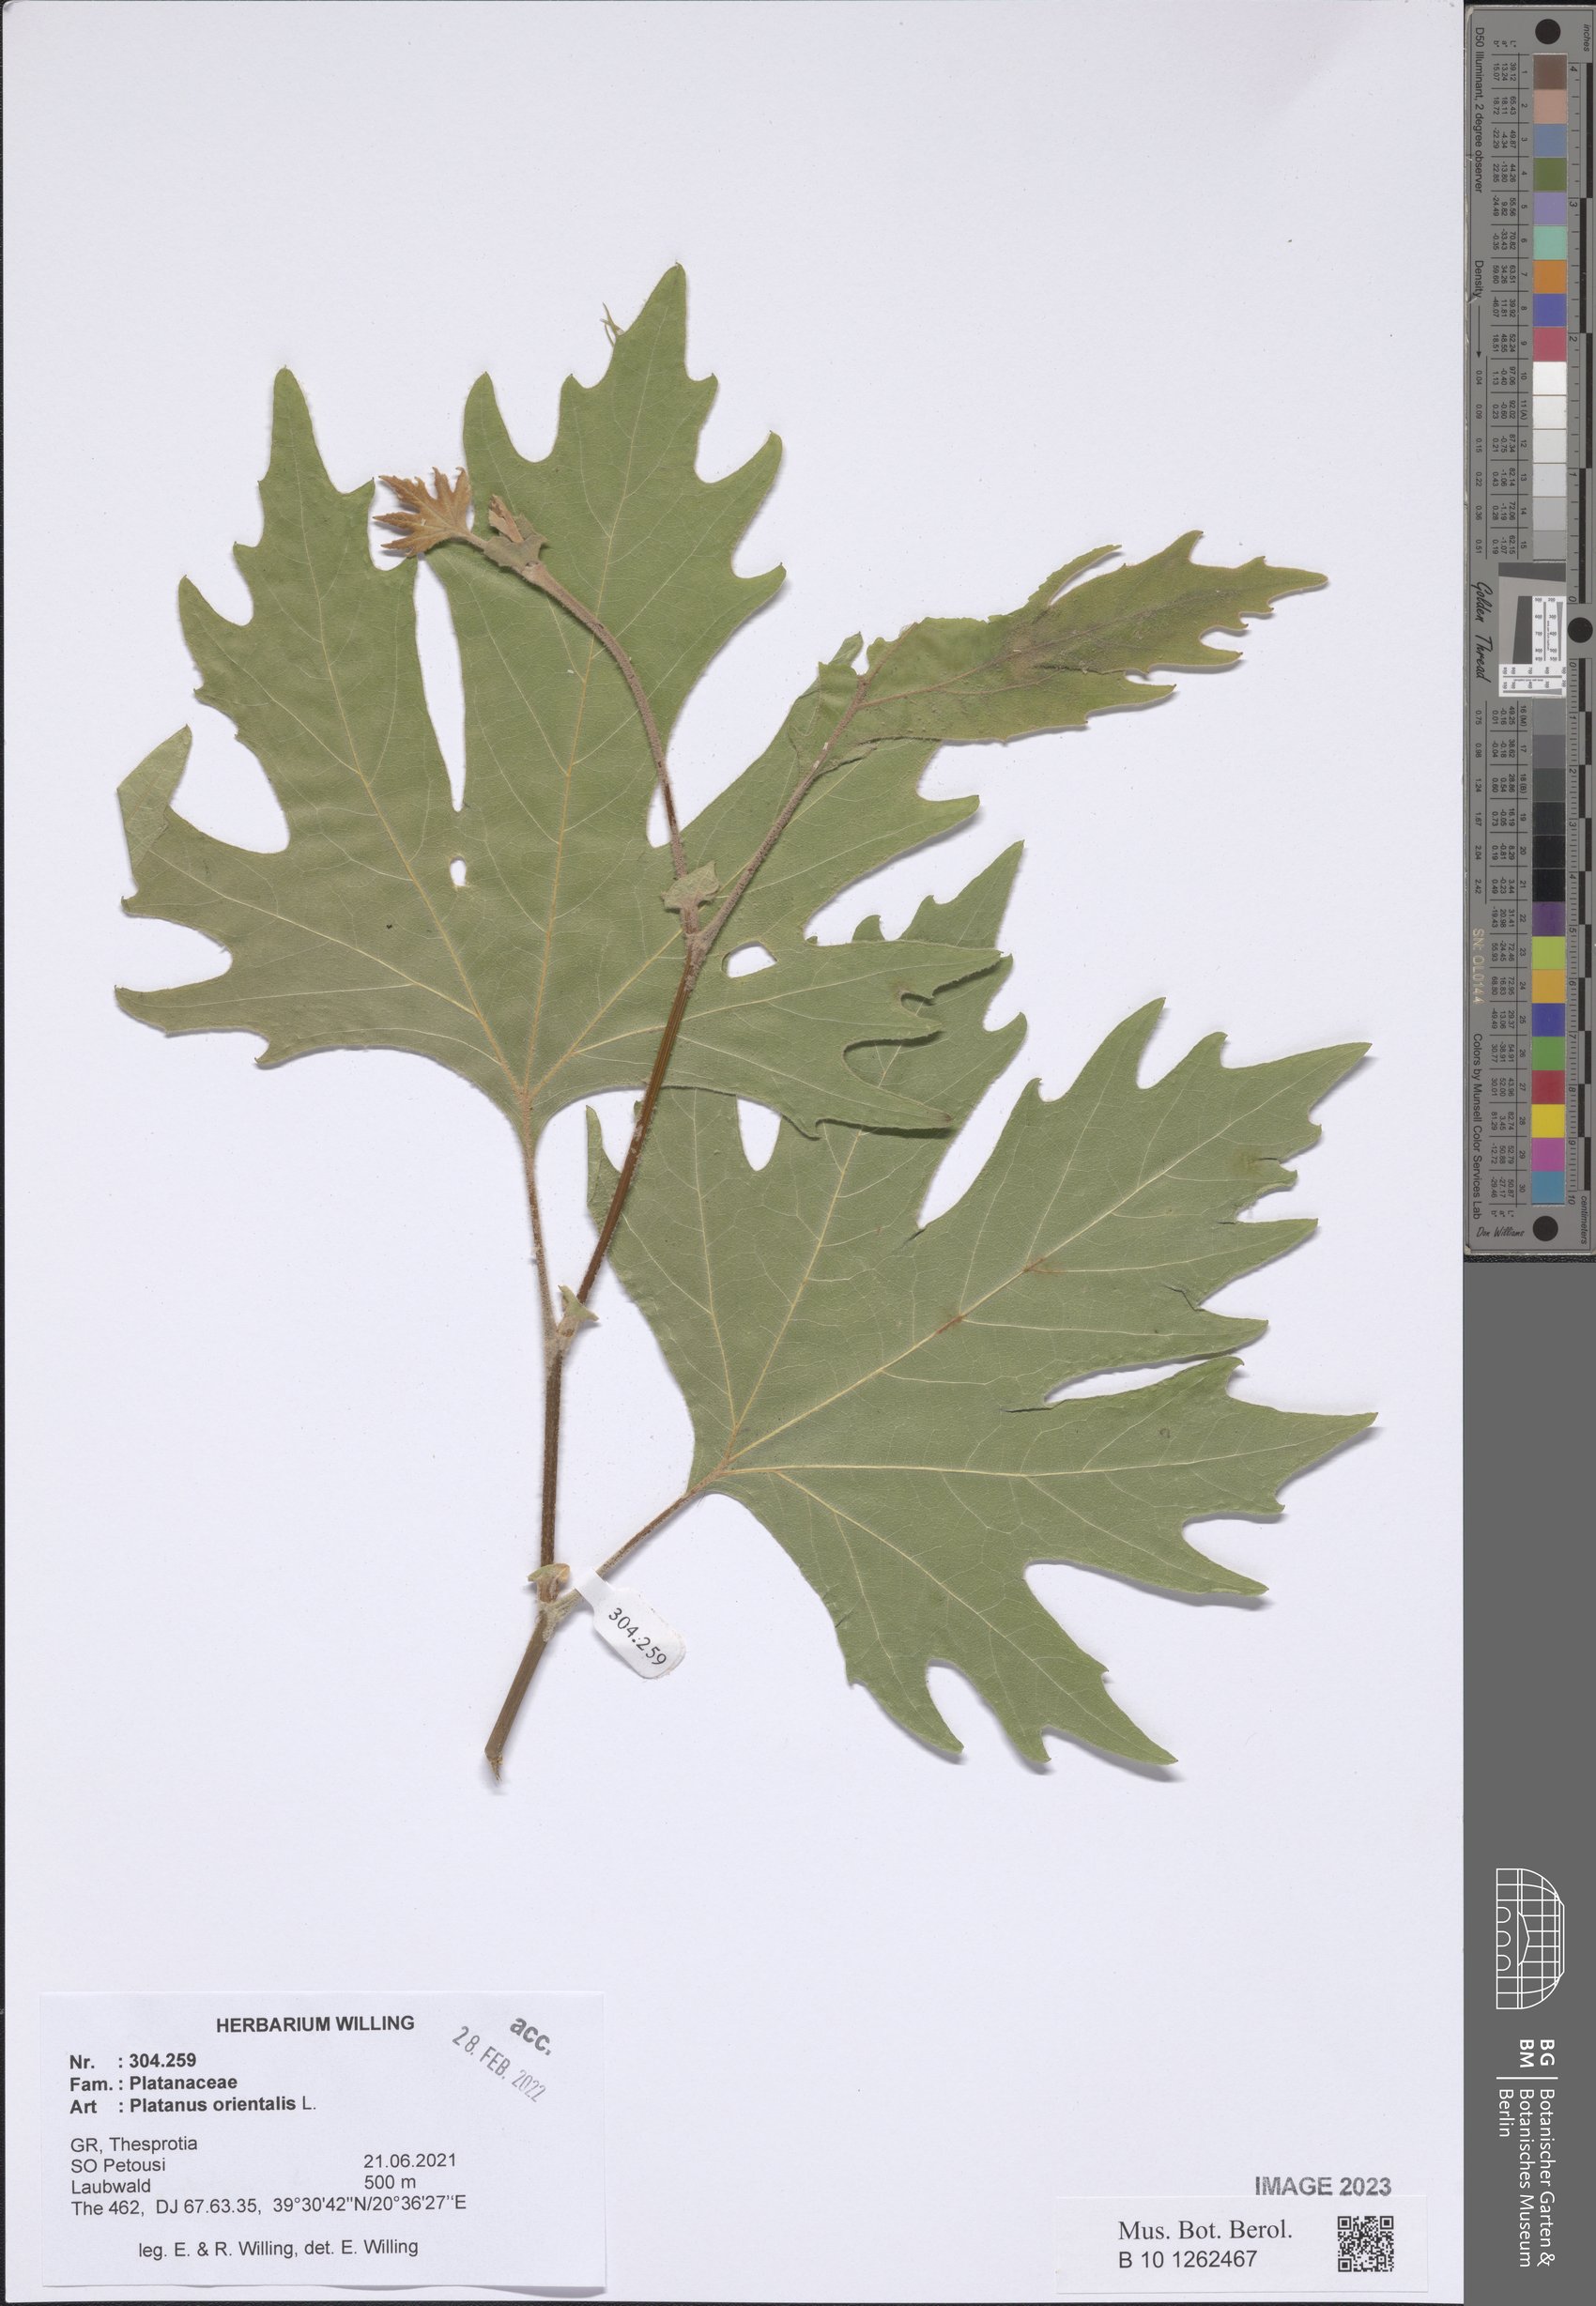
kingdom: Plantae
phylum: Tracheophyta
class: Magnoliopsida
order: Proteales
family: Platanaceae
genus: Platanus
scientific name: Platanus orientalis
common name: Oriental plane
